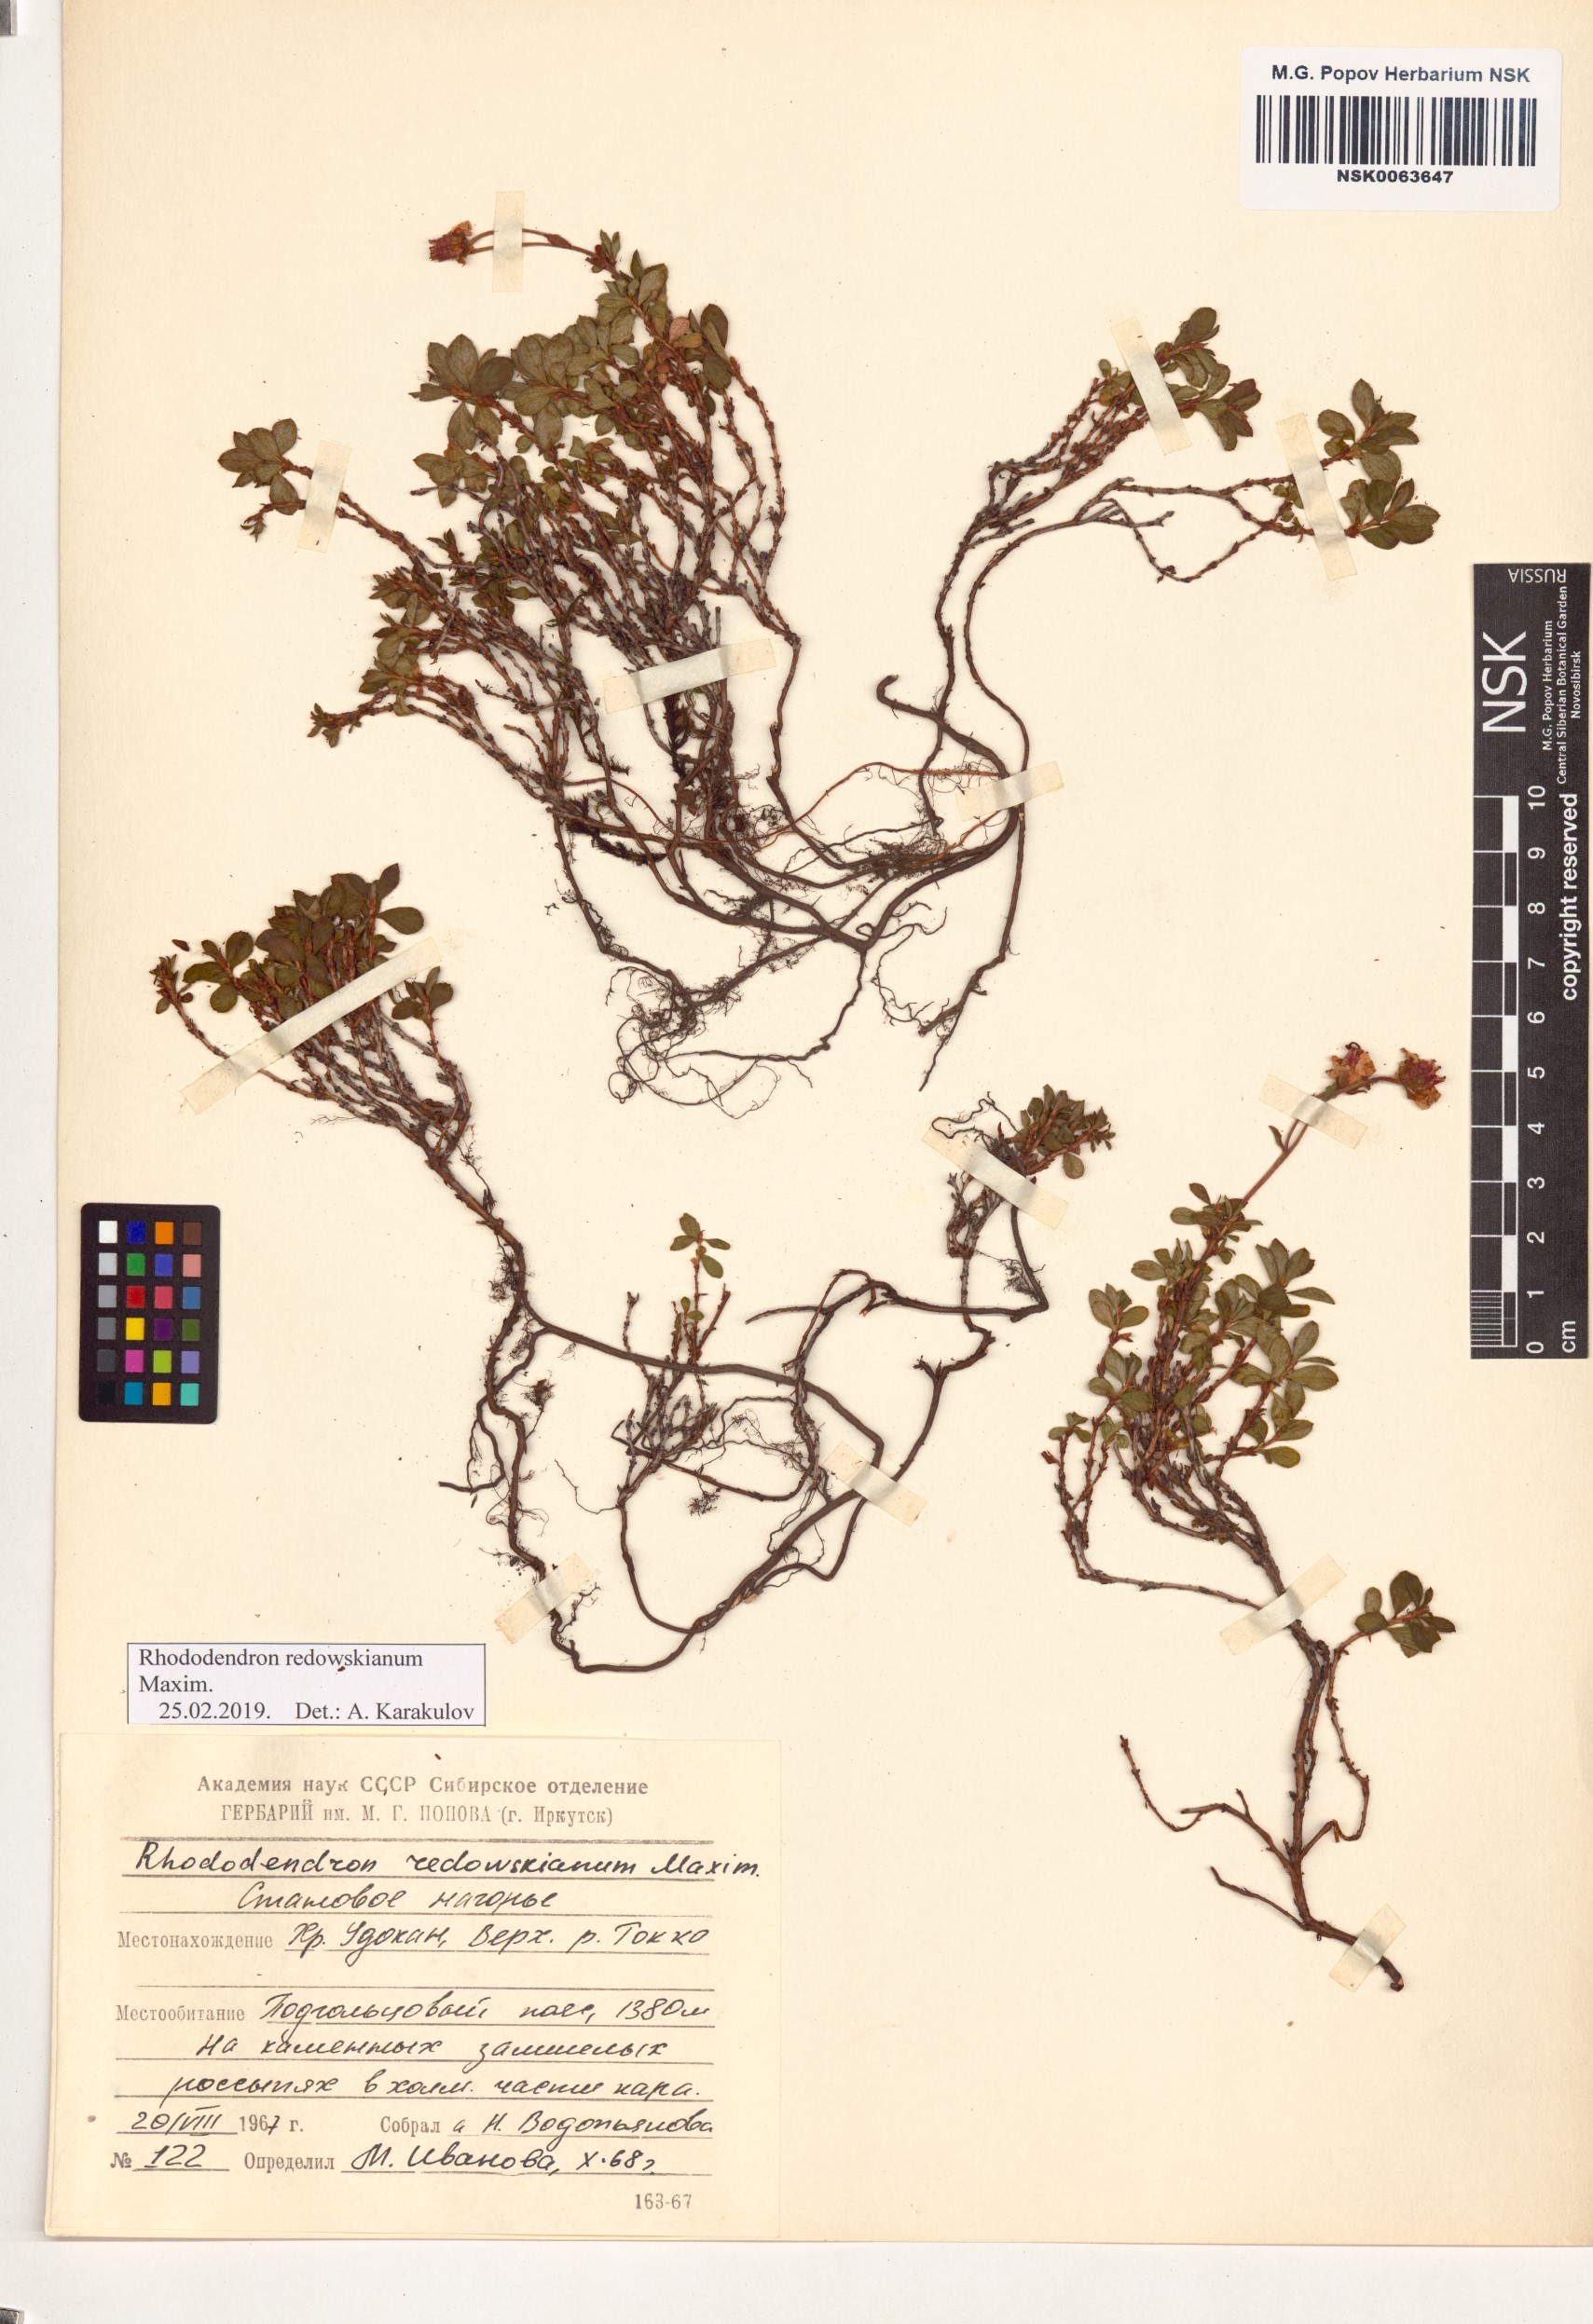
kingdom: Plantae
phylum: Tracheophyta
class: Magnoliopsida
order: Ericales
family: Ericaceae
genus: Rhododendron
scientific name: Rhododendron redowskianum
